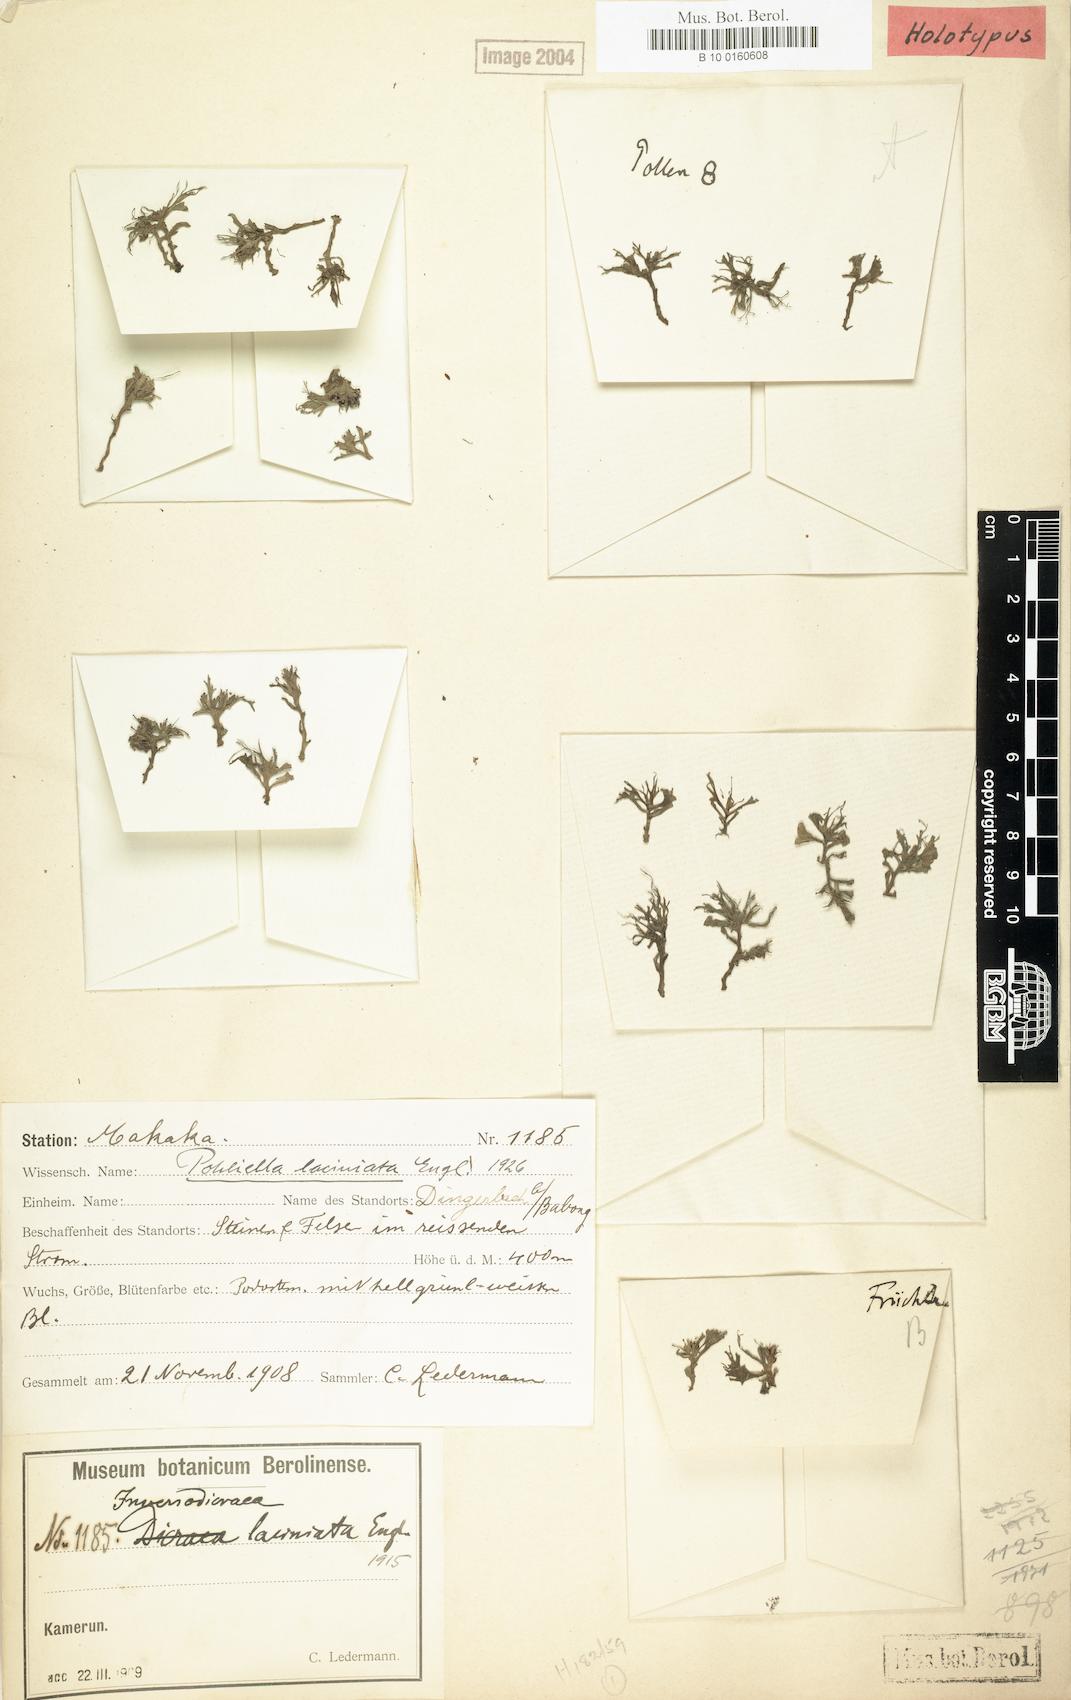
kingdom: Plantae
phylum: Tracheophyta
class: Magnoliopsida
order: Malpighiales
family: Podostemaceae
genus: Saxicolella
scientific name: Saxicolella laciniata
